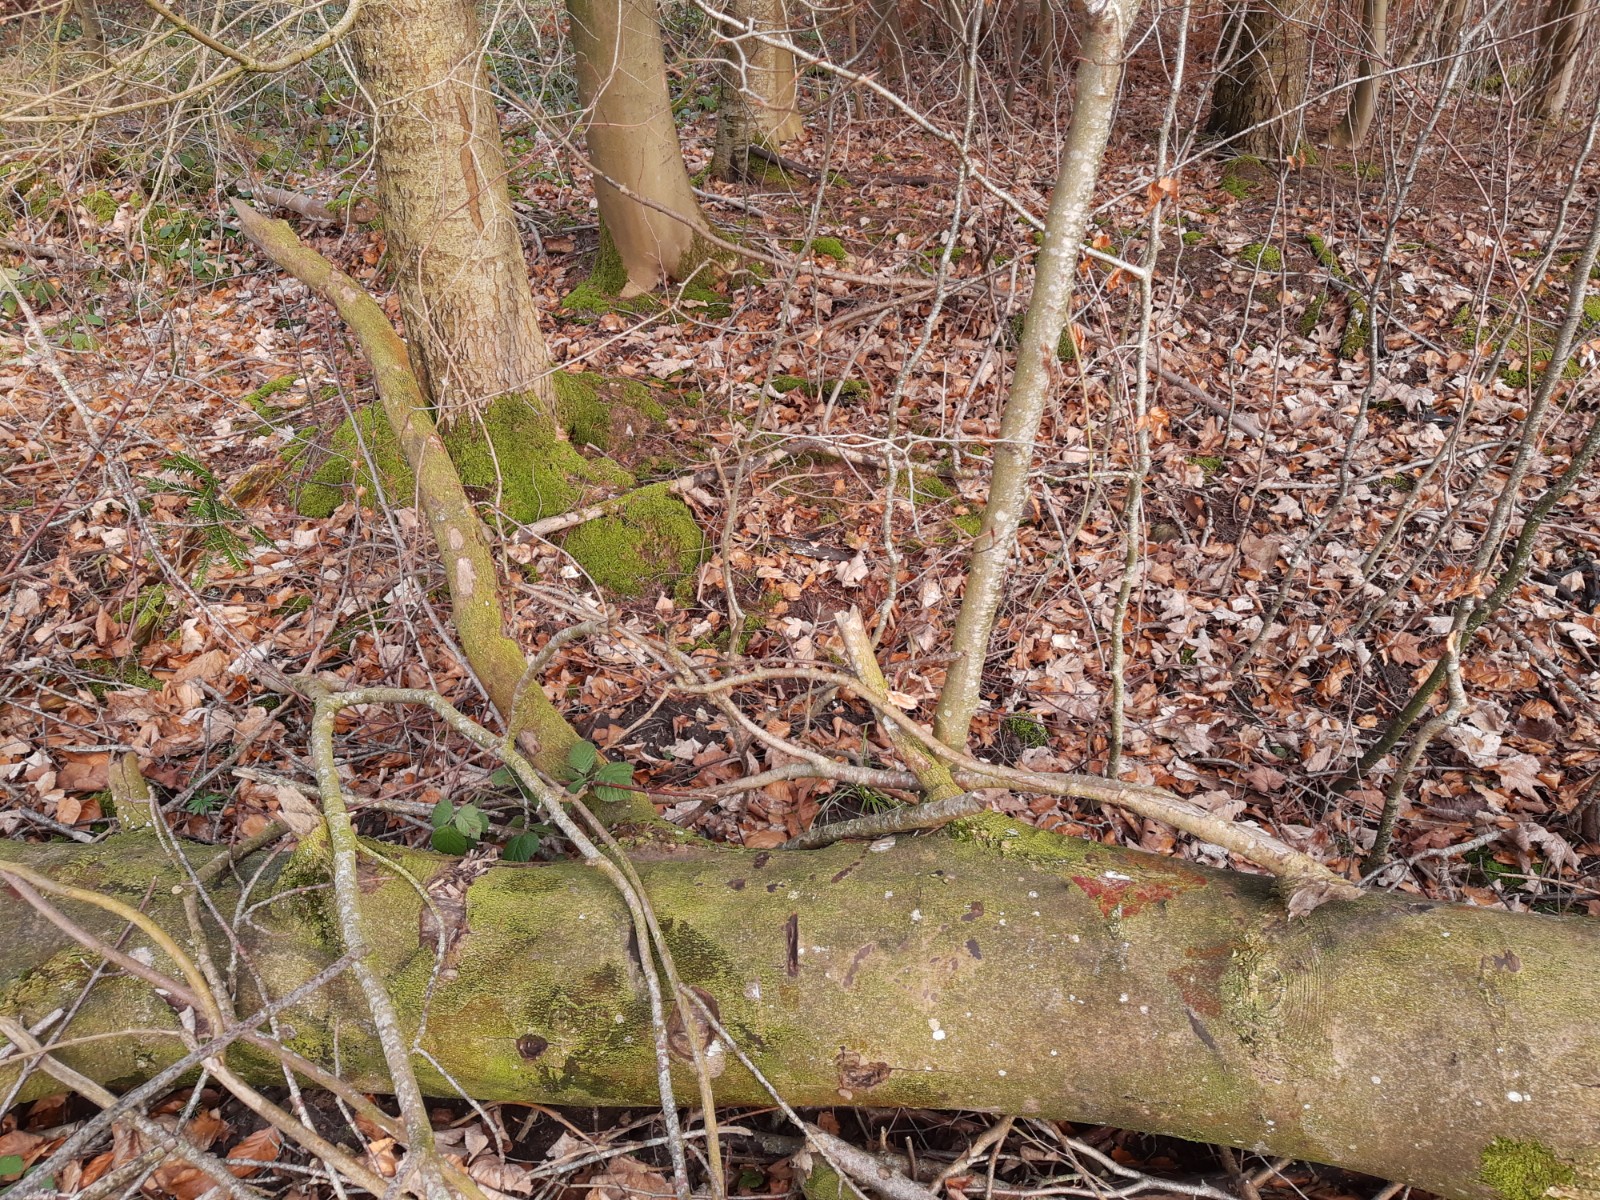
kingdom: Fungi
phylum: Ascomycota
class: Sordariomycetes
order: Hypocreales
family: Nectriaceae
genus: Nectria
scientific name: Nectria cinnabarina
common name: almindelig cinnobersvamp
